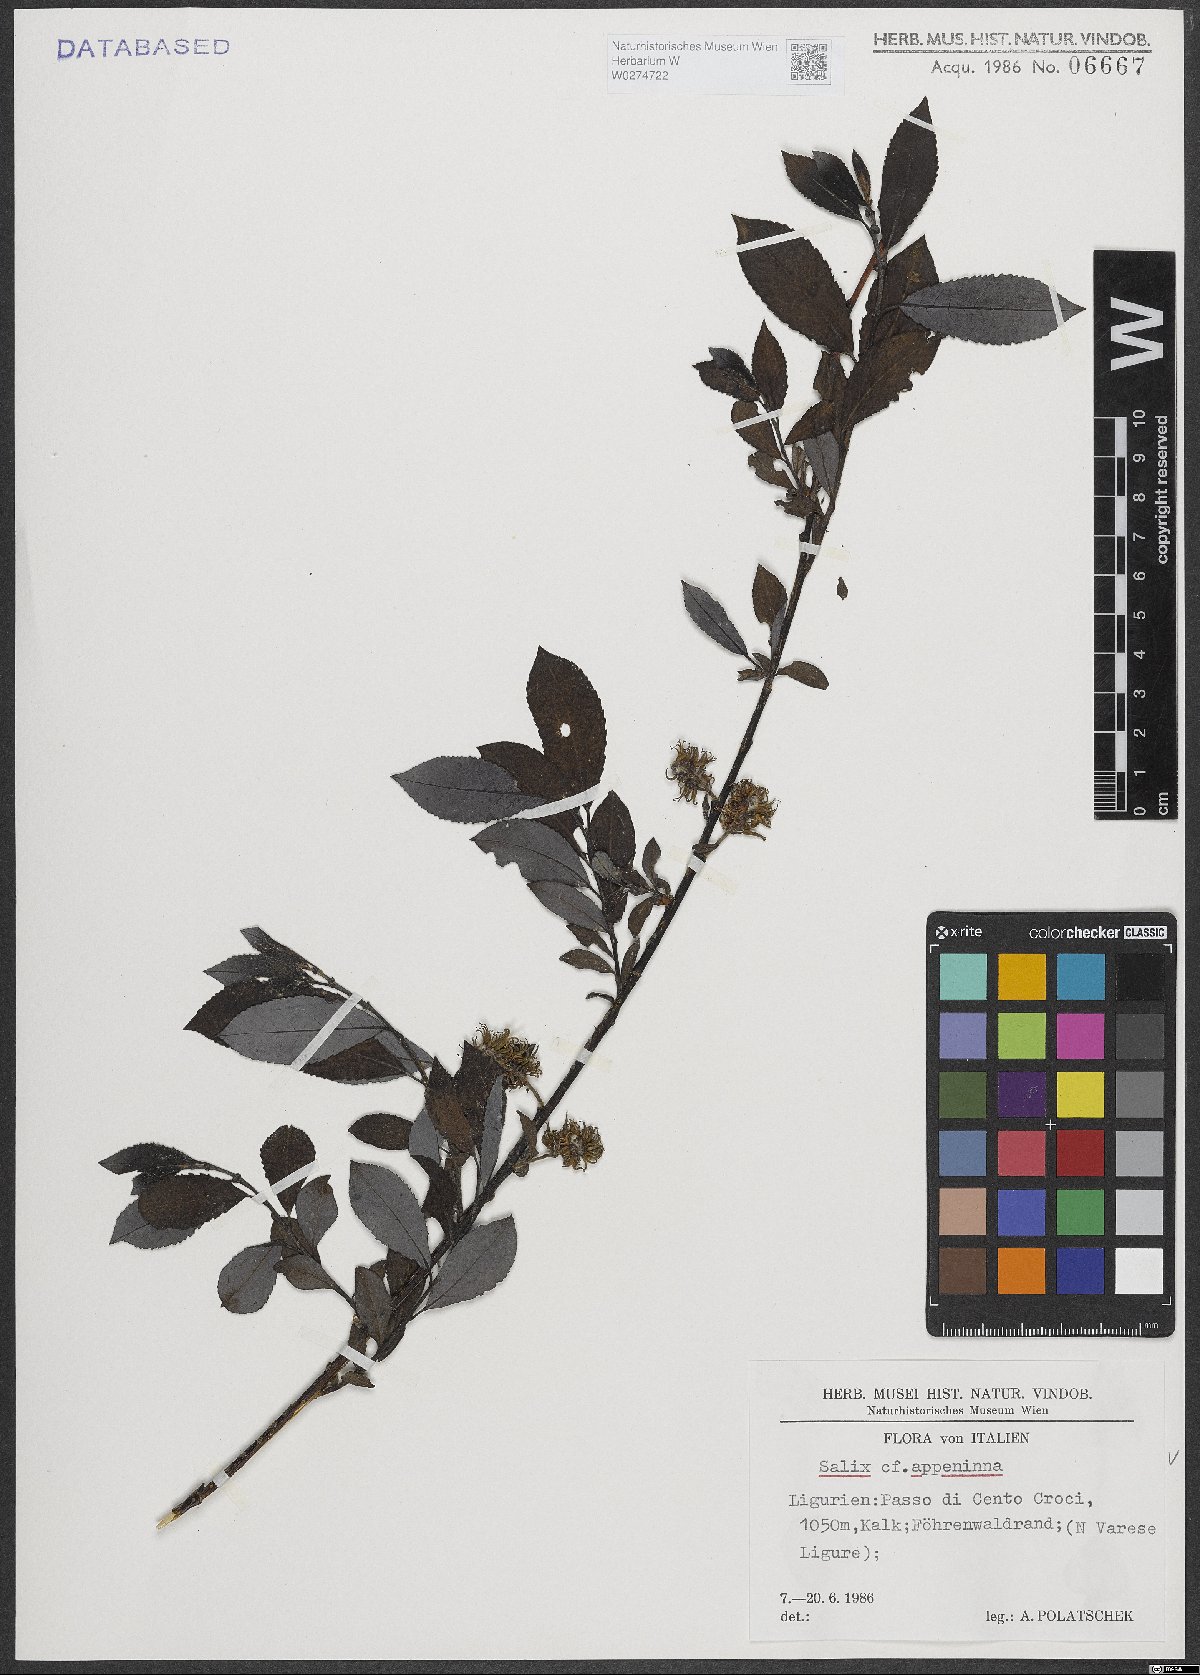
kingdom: Plantae
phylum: Tracheophyta
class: Magnoliopsida
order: Malpighiales
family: Salicaceae
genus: Salix
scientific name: Salix apennina
